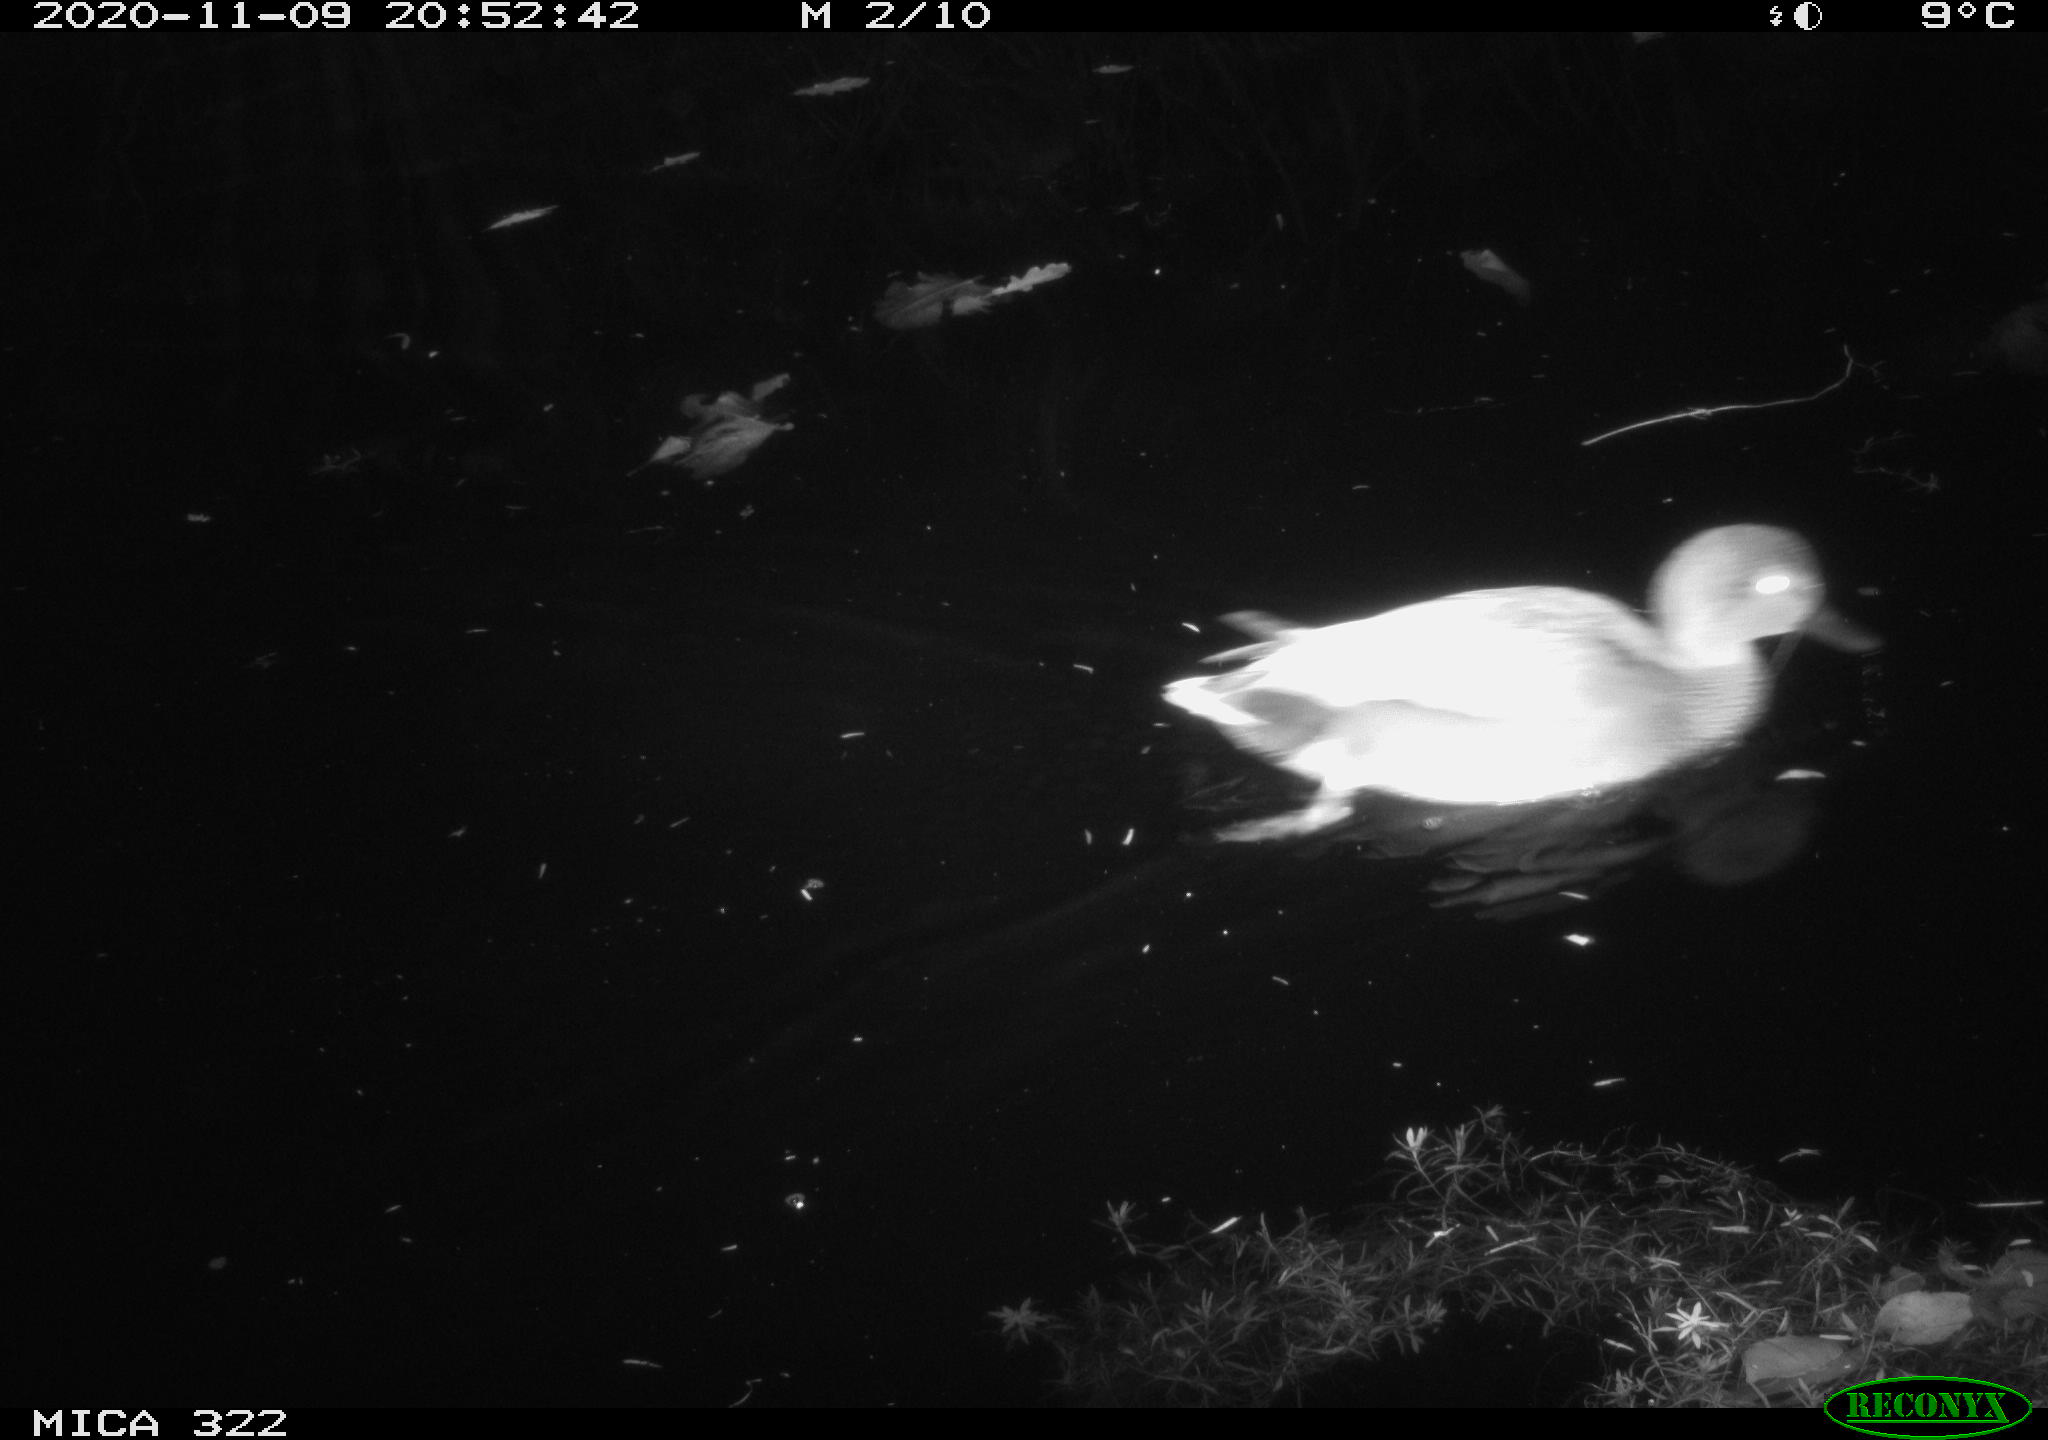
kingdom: Animalia
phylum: Chordata
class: Aves
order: Anseriformes
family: Anatidae
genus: Mareca
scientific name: Mareca strepera
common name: Gadwall
